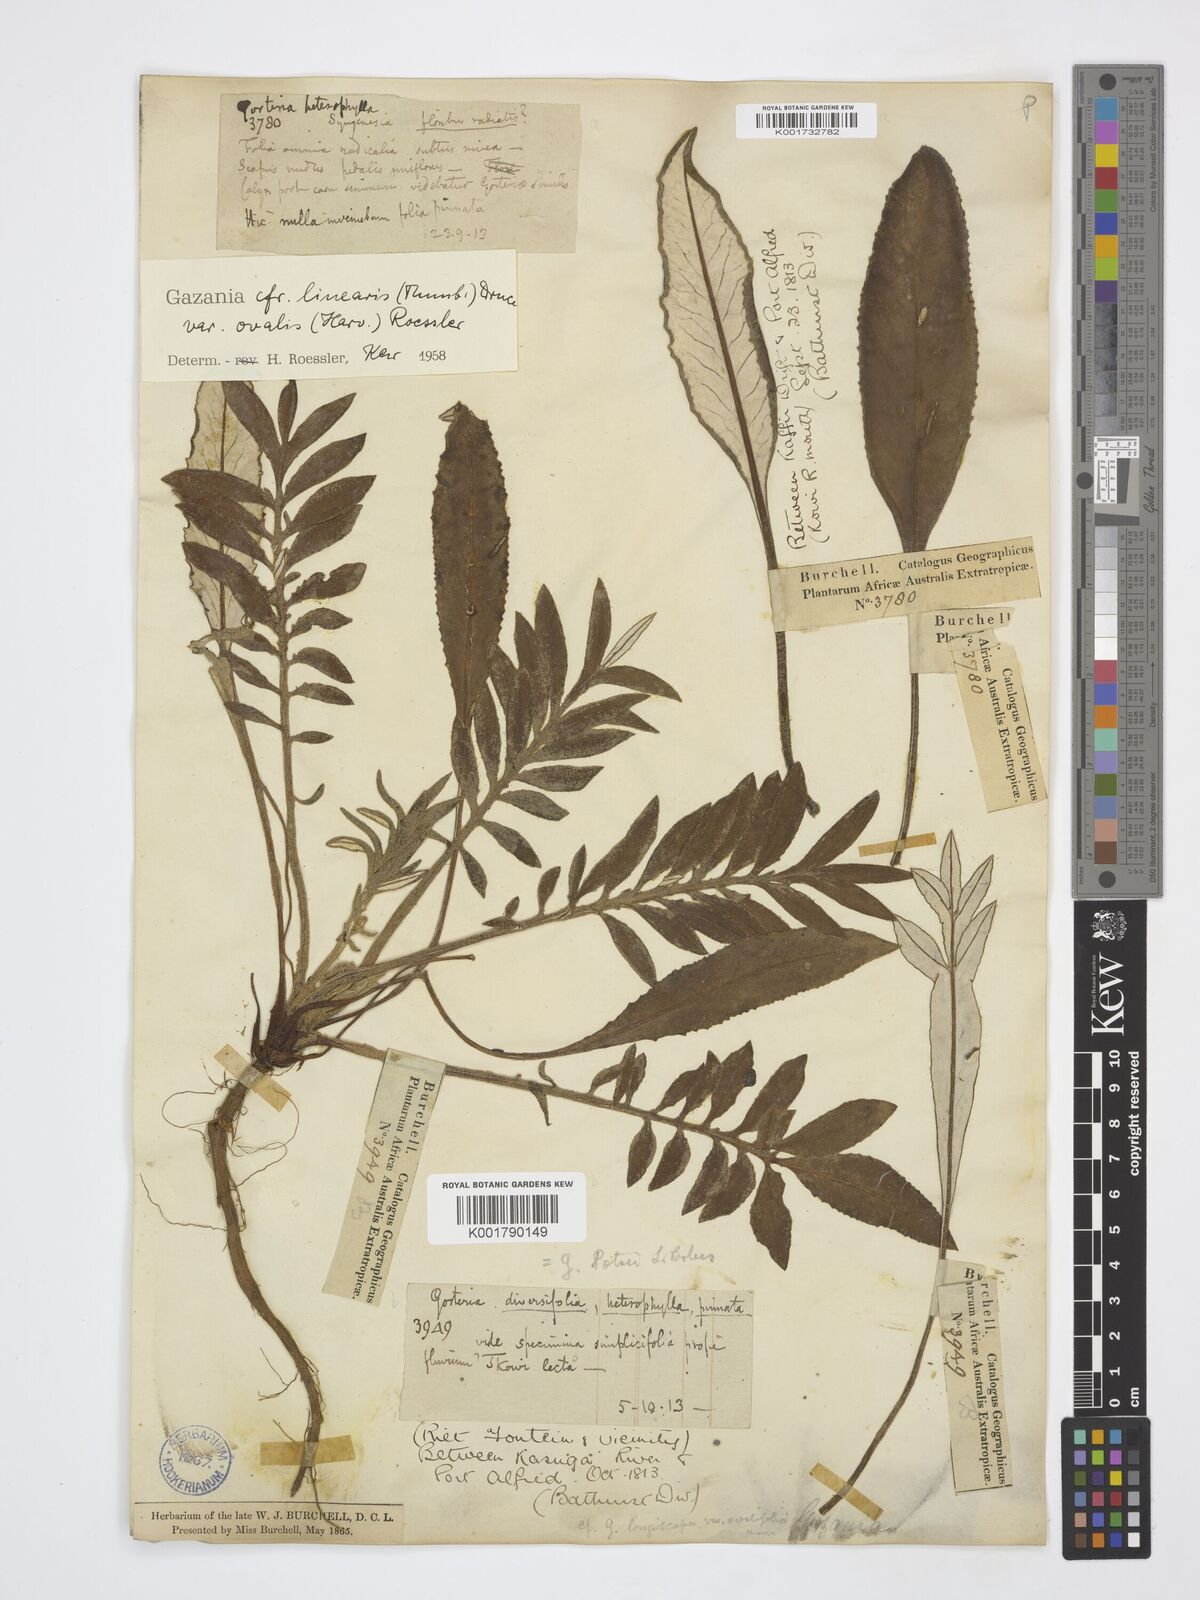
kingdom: Plantae
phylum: Tracheophyta
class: Magnoliopsida
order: Asterales
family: Asteraceae
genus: Gazania
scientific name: Gazania linearis
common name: Treasureflower
